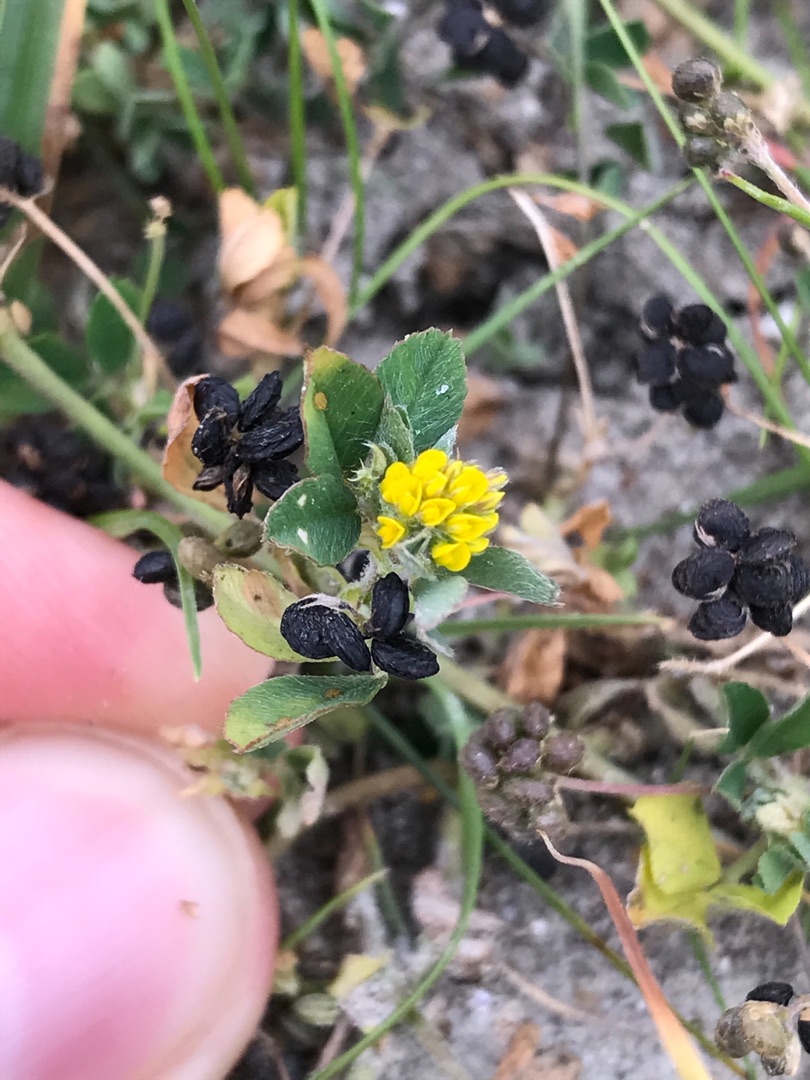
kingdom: Plantae
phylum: Tracheophyta
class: Magnoliopsida
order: Fabales
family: Fabaceae
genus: Medicago
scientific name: Medicago lupulina
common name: Humle-sneglebælg
